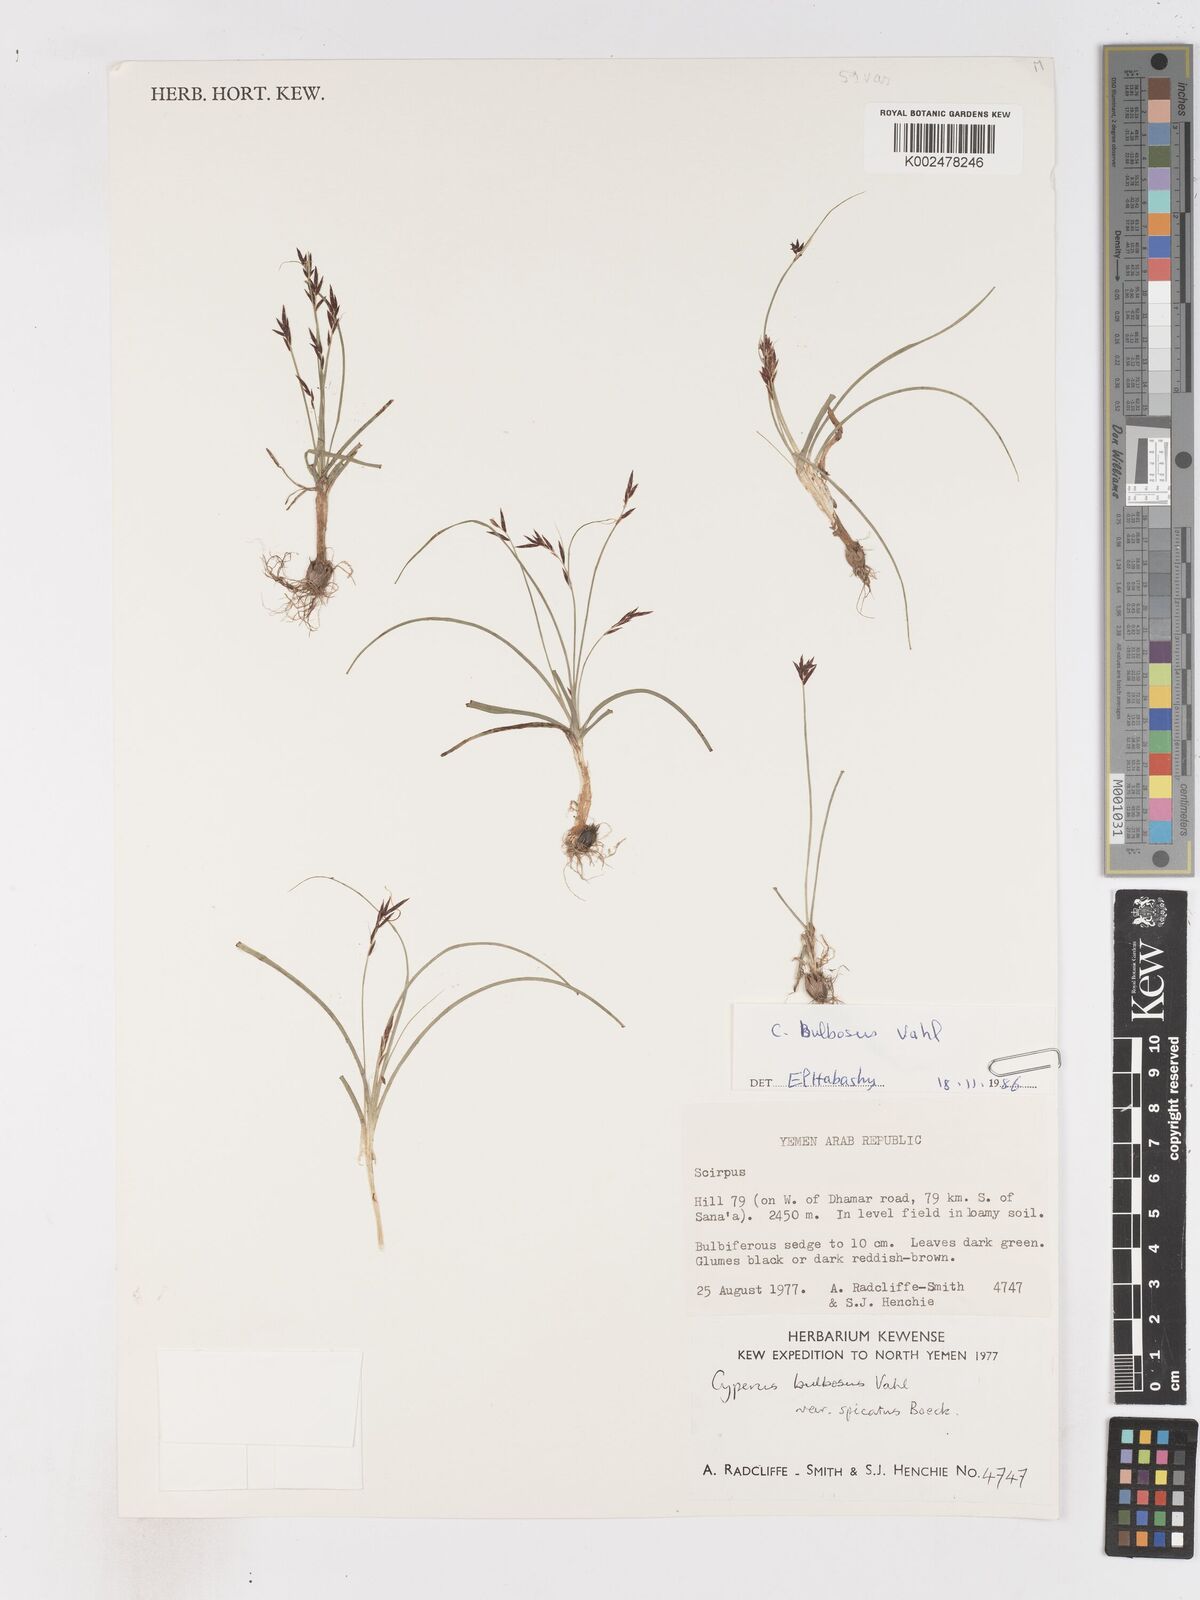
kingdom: Plantae
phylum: Tracheophyta
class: Liliopsida
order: Poales
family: Cyperaceae
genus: Cyperus
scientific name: Cyperus bulbosus
